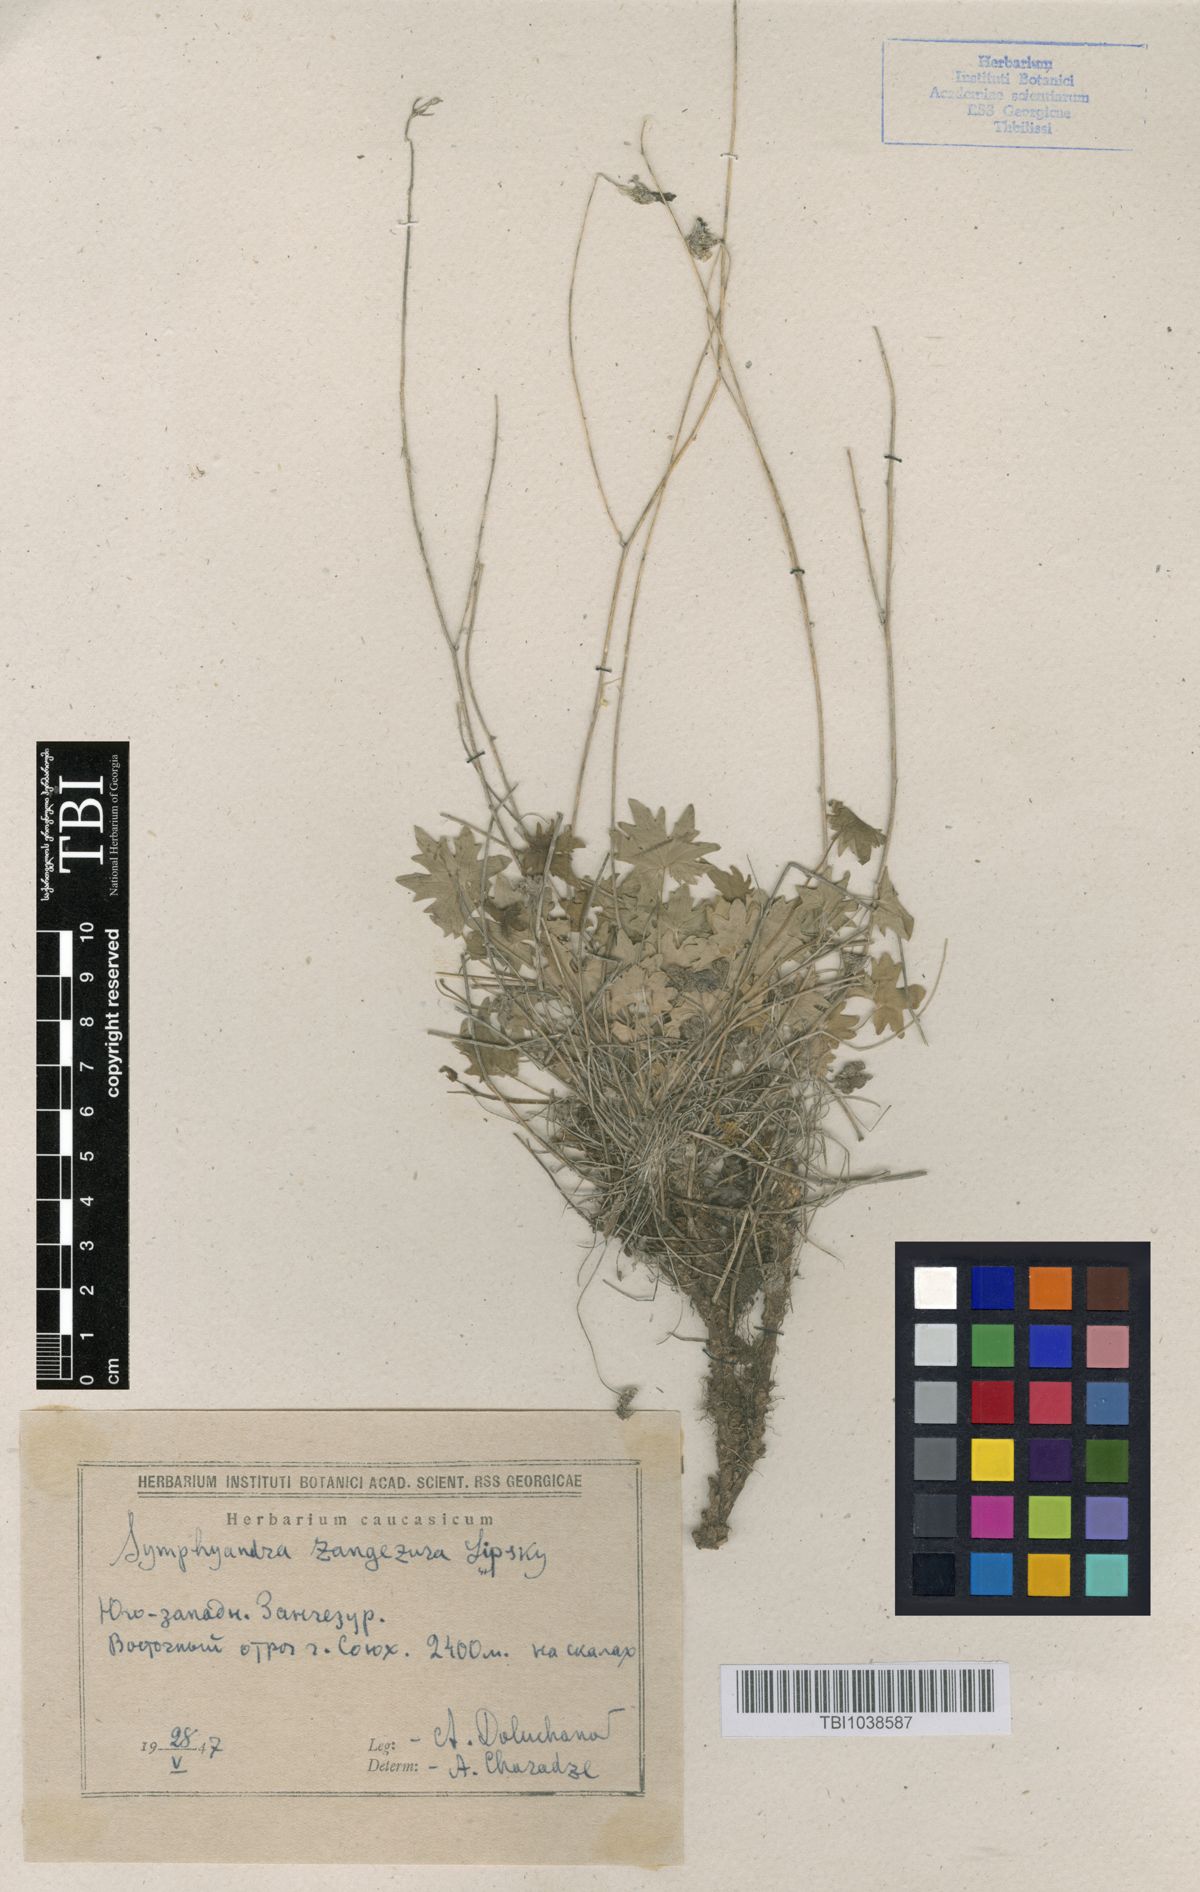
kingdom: Plantae
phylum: Tracheophyta
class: Magnoliopsida
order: Asterales
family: Campanulaceae
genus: Campanula
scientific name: Campanula zangezura
